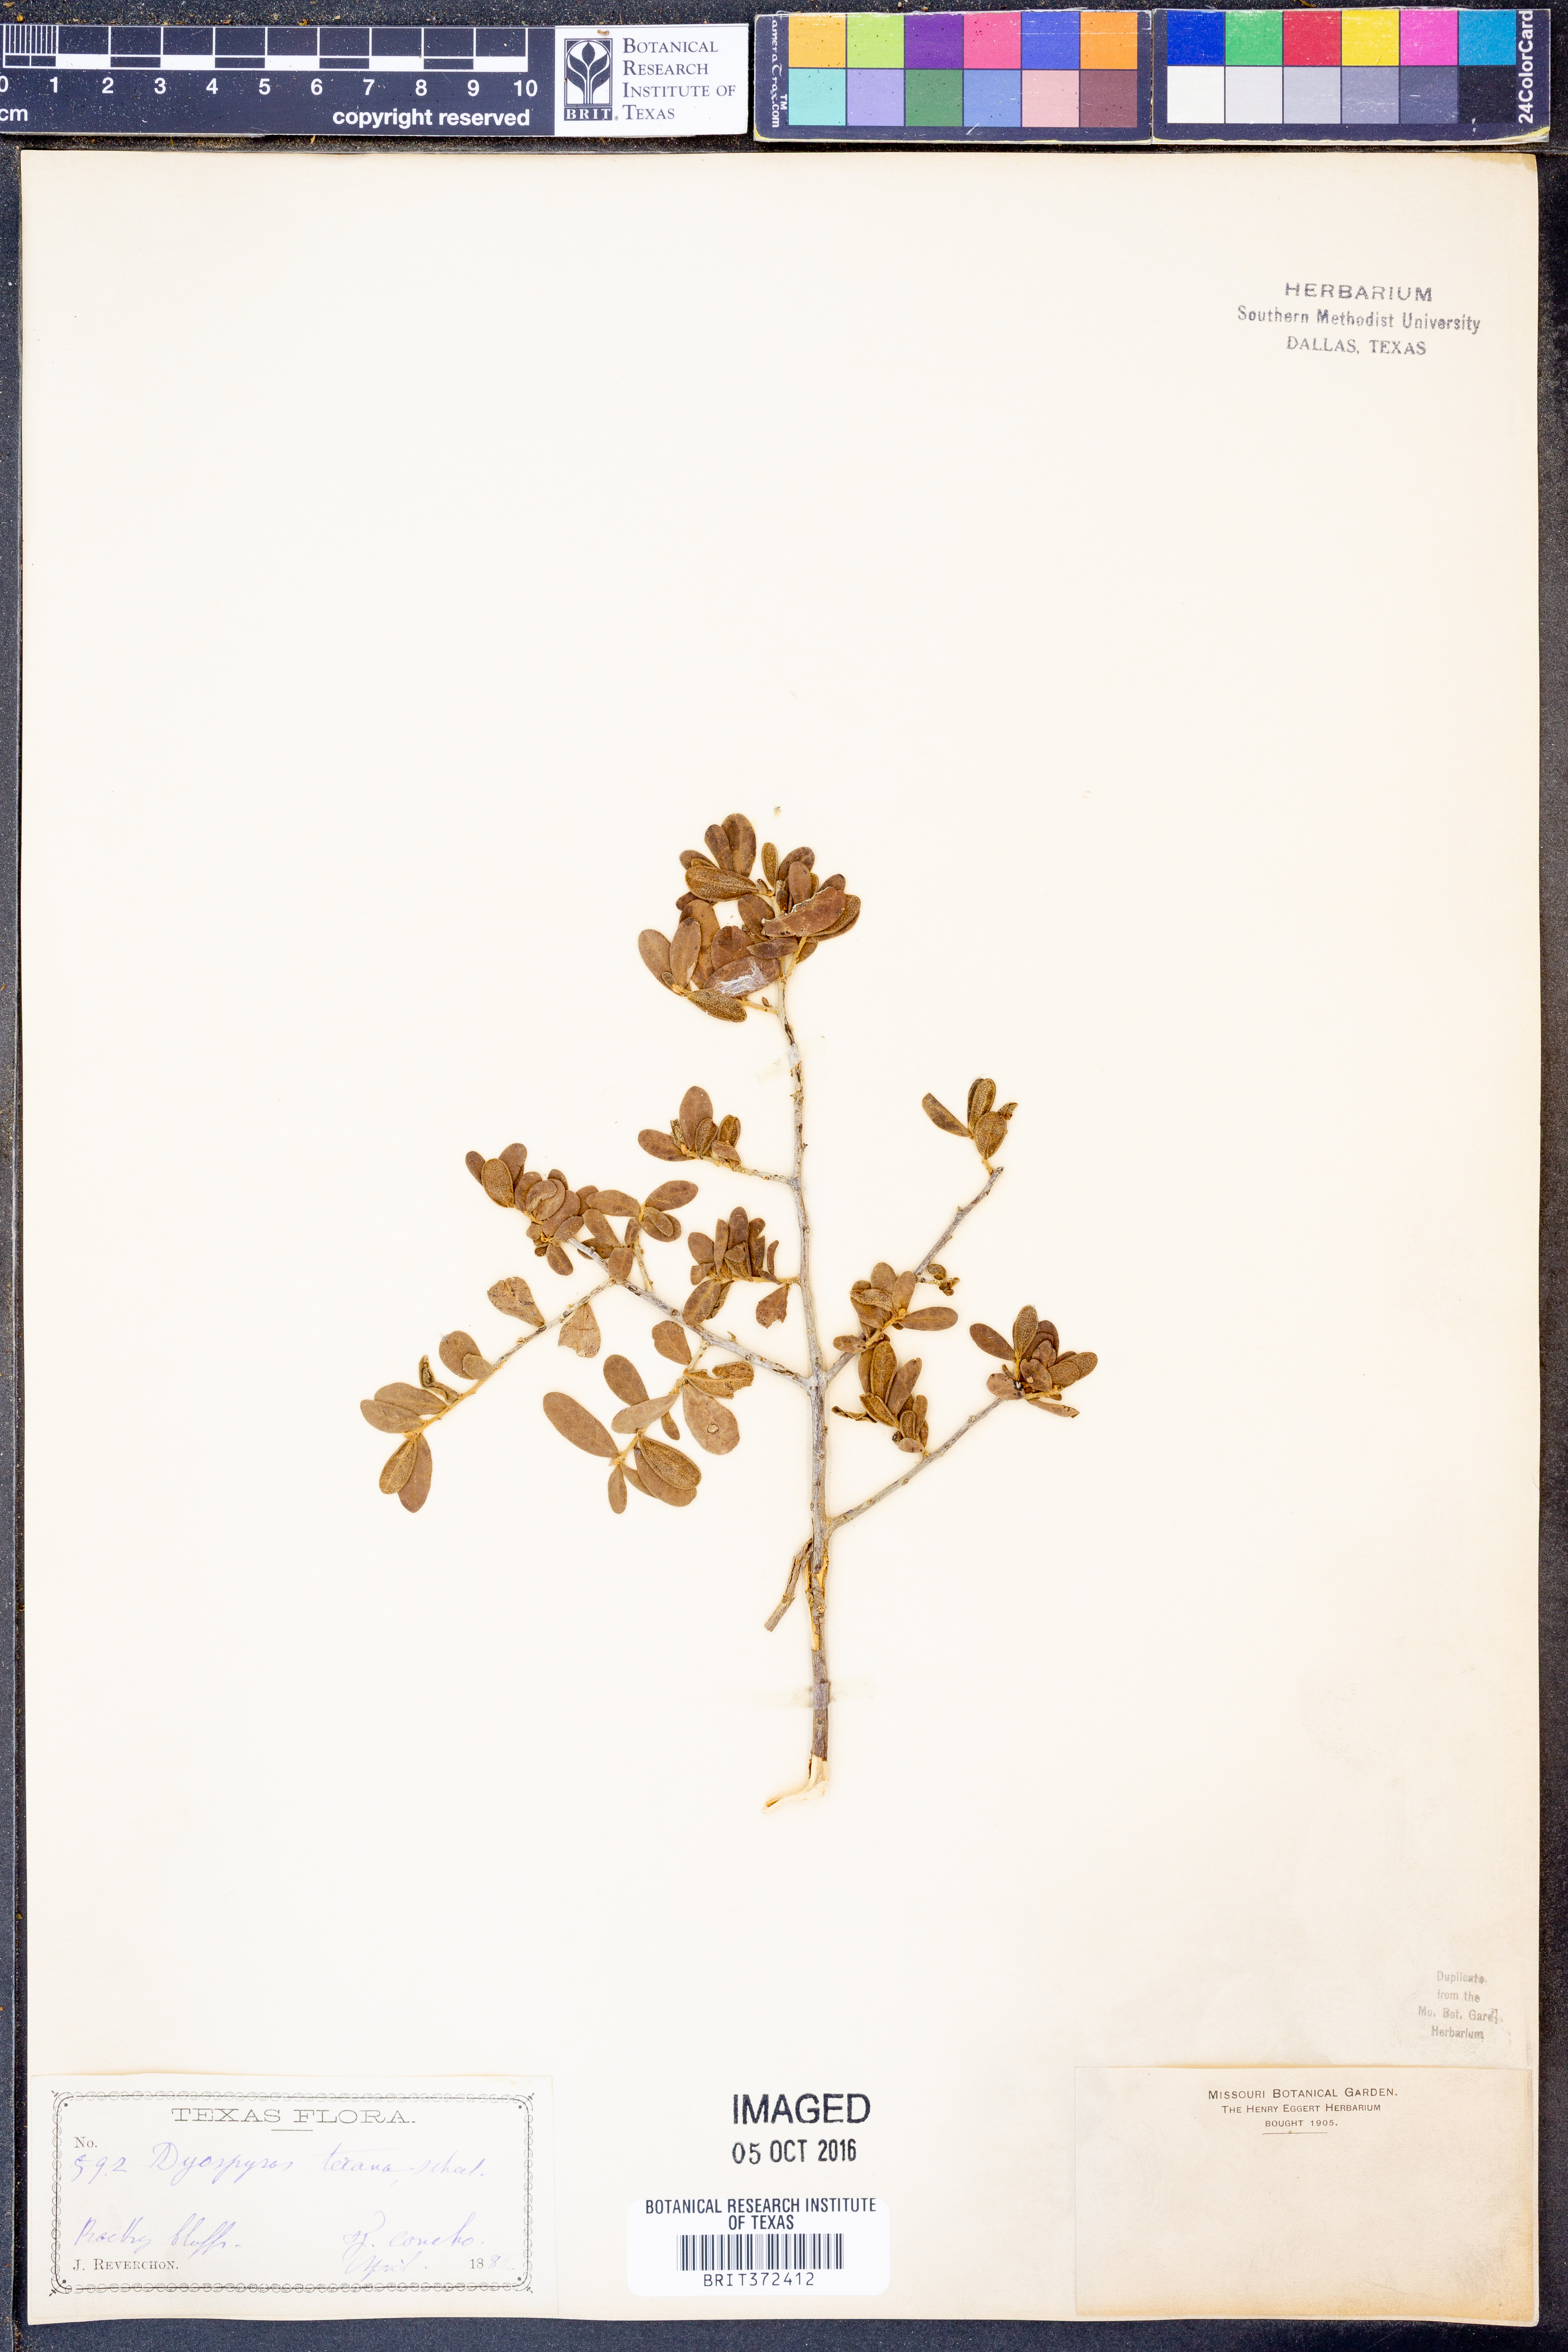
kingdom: Plantae
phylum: Tracheophyta
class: Magnoliopsida
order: Ericales
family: Ebenaceae
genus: Diospyros
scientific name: Diospyros texana
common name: Texas persimmon
